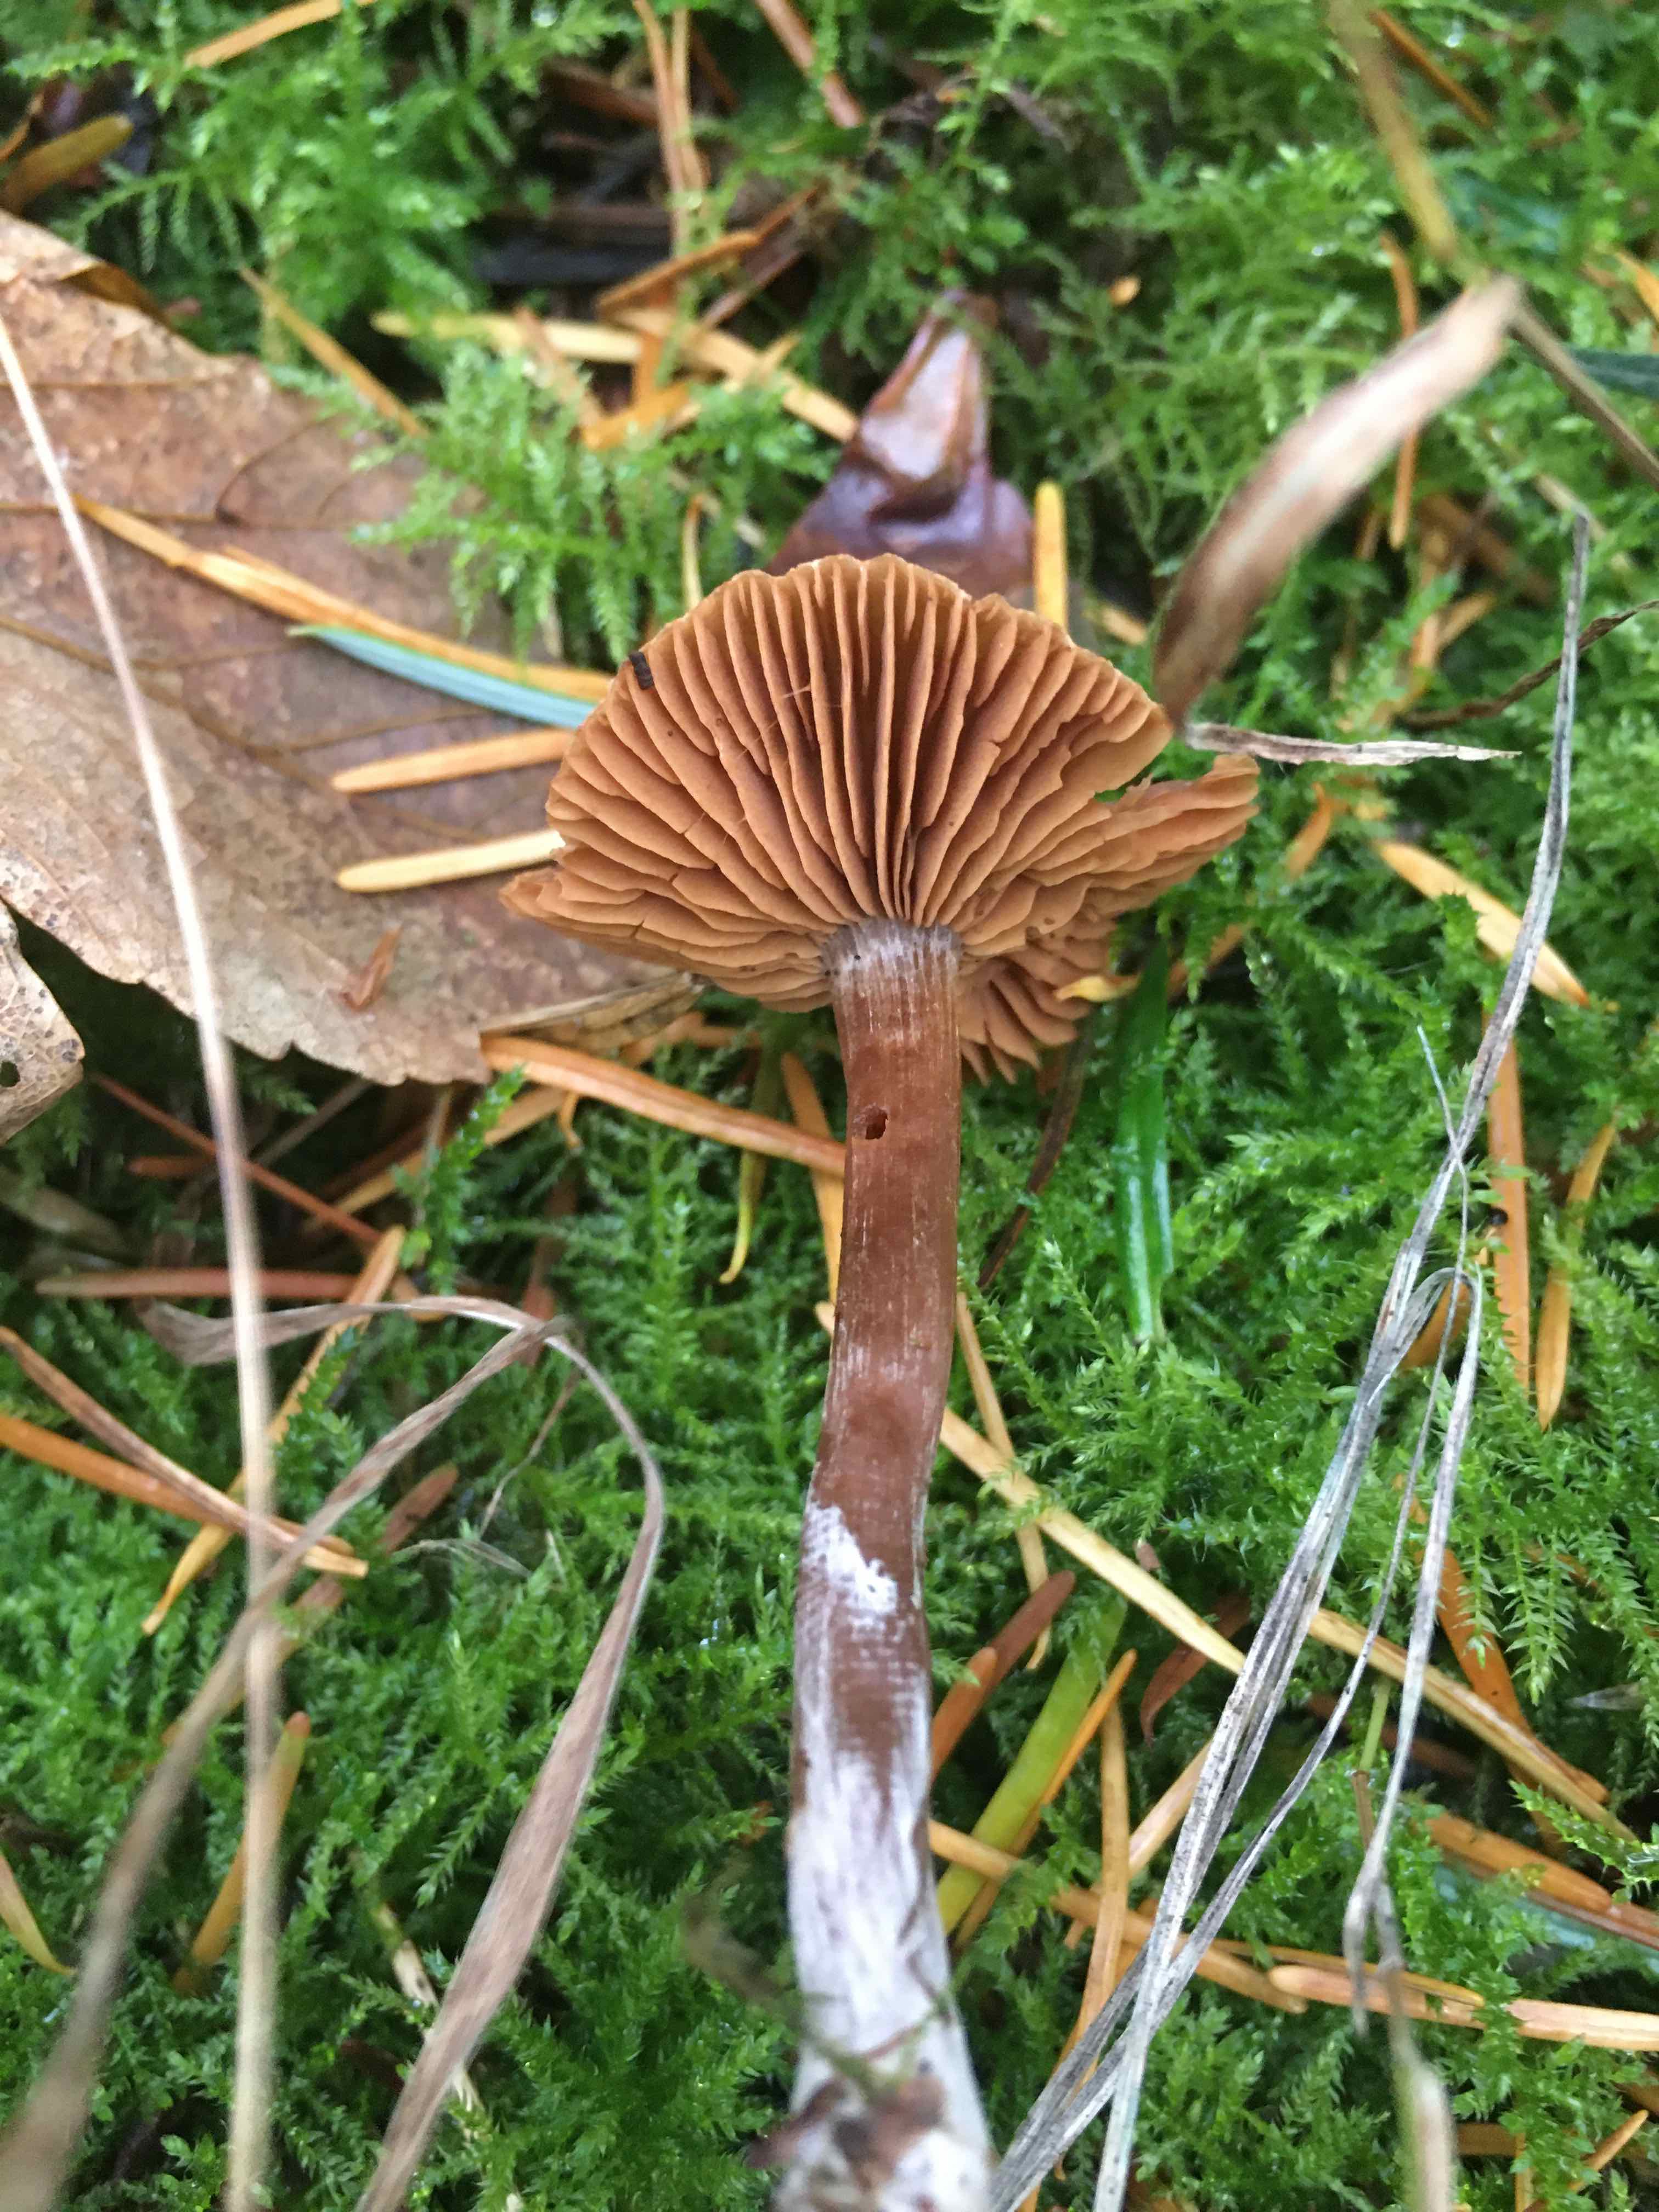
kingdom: Fungi
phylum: Basidiomycota
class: Agaricomycetes
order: Agaricales
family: Cortinariaceae
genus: Cortinarius
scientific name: Cortinarius
